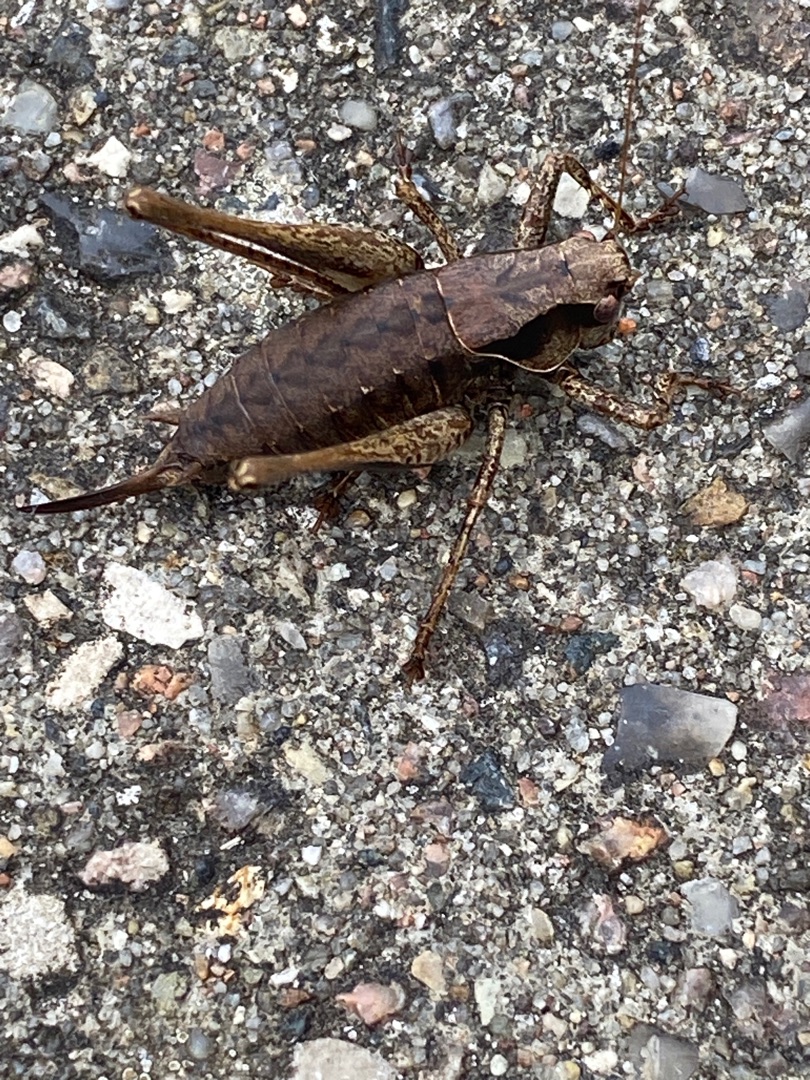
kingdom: Animalia
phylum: Arthropoda
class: Insecta
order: Orthoptera
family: Tettigoniidae
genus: Pholidoptera
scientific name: Pholidoptera griseoaptera
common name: Buskgræshoppe
